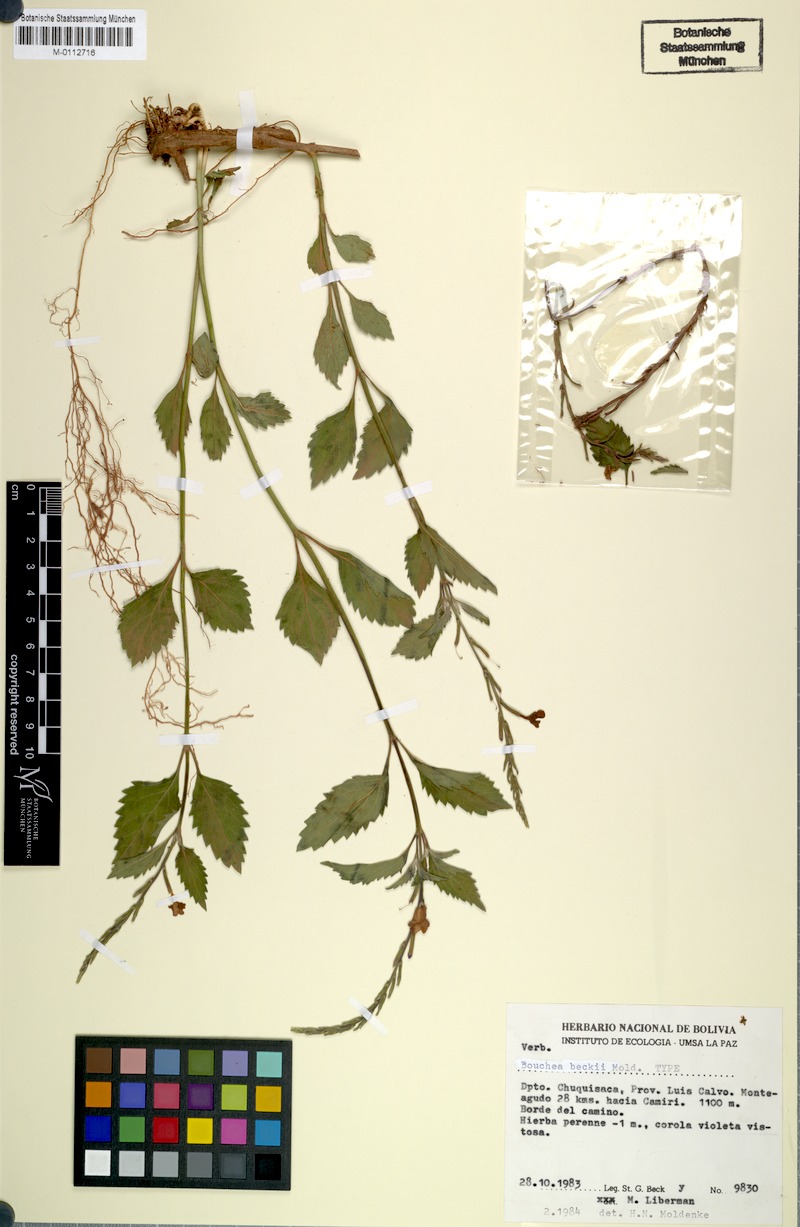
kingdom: Plantae
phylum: Tracheophyta
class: Magnoliopsida
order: Lamiales
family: Verbenaceae
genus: Bouchea
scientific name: Bouchea boliviana
